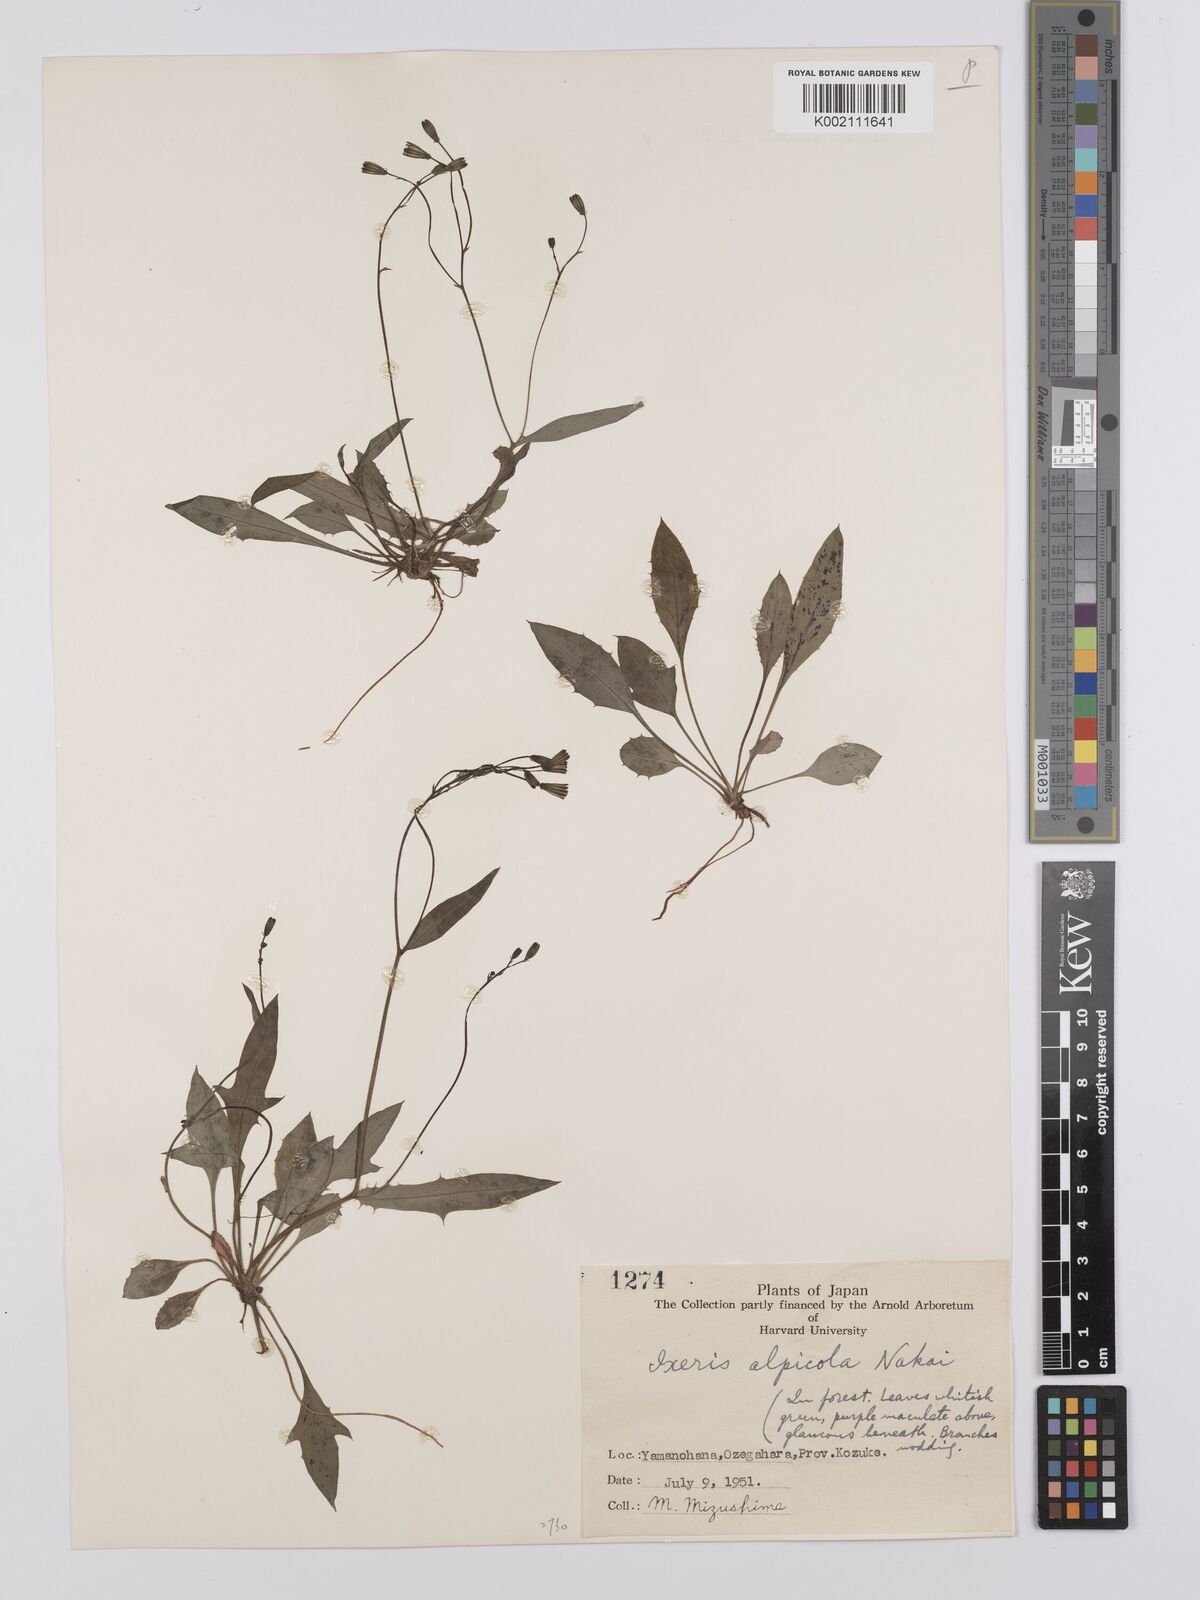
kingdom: Plantae
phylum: Tracheophyta
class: Magnoliopsida
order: Asterales
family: Asteraceae
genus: Ixeridium
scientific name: Ixeridium alpicola
